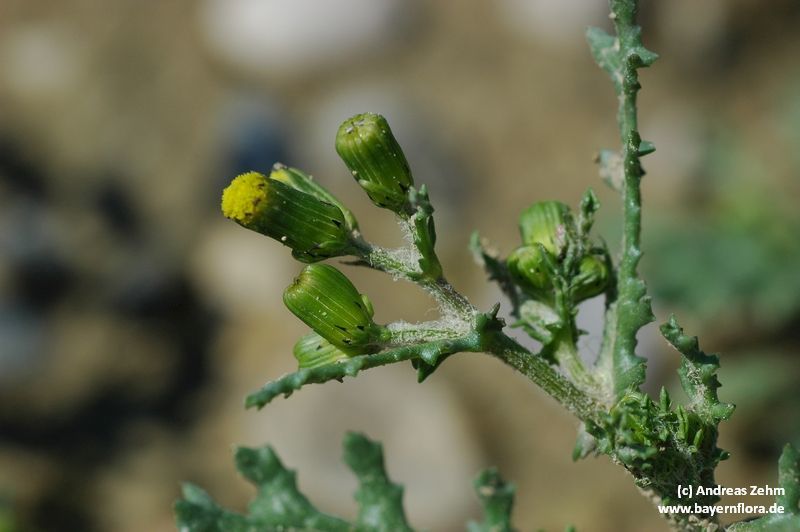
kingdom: Plantae
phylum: Tracheophyta
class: Magnoliopsida
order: Asterales
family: Asteraceae
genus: Senecio
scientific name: Senecio vulgaris
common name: Old-man-in-the-spring
